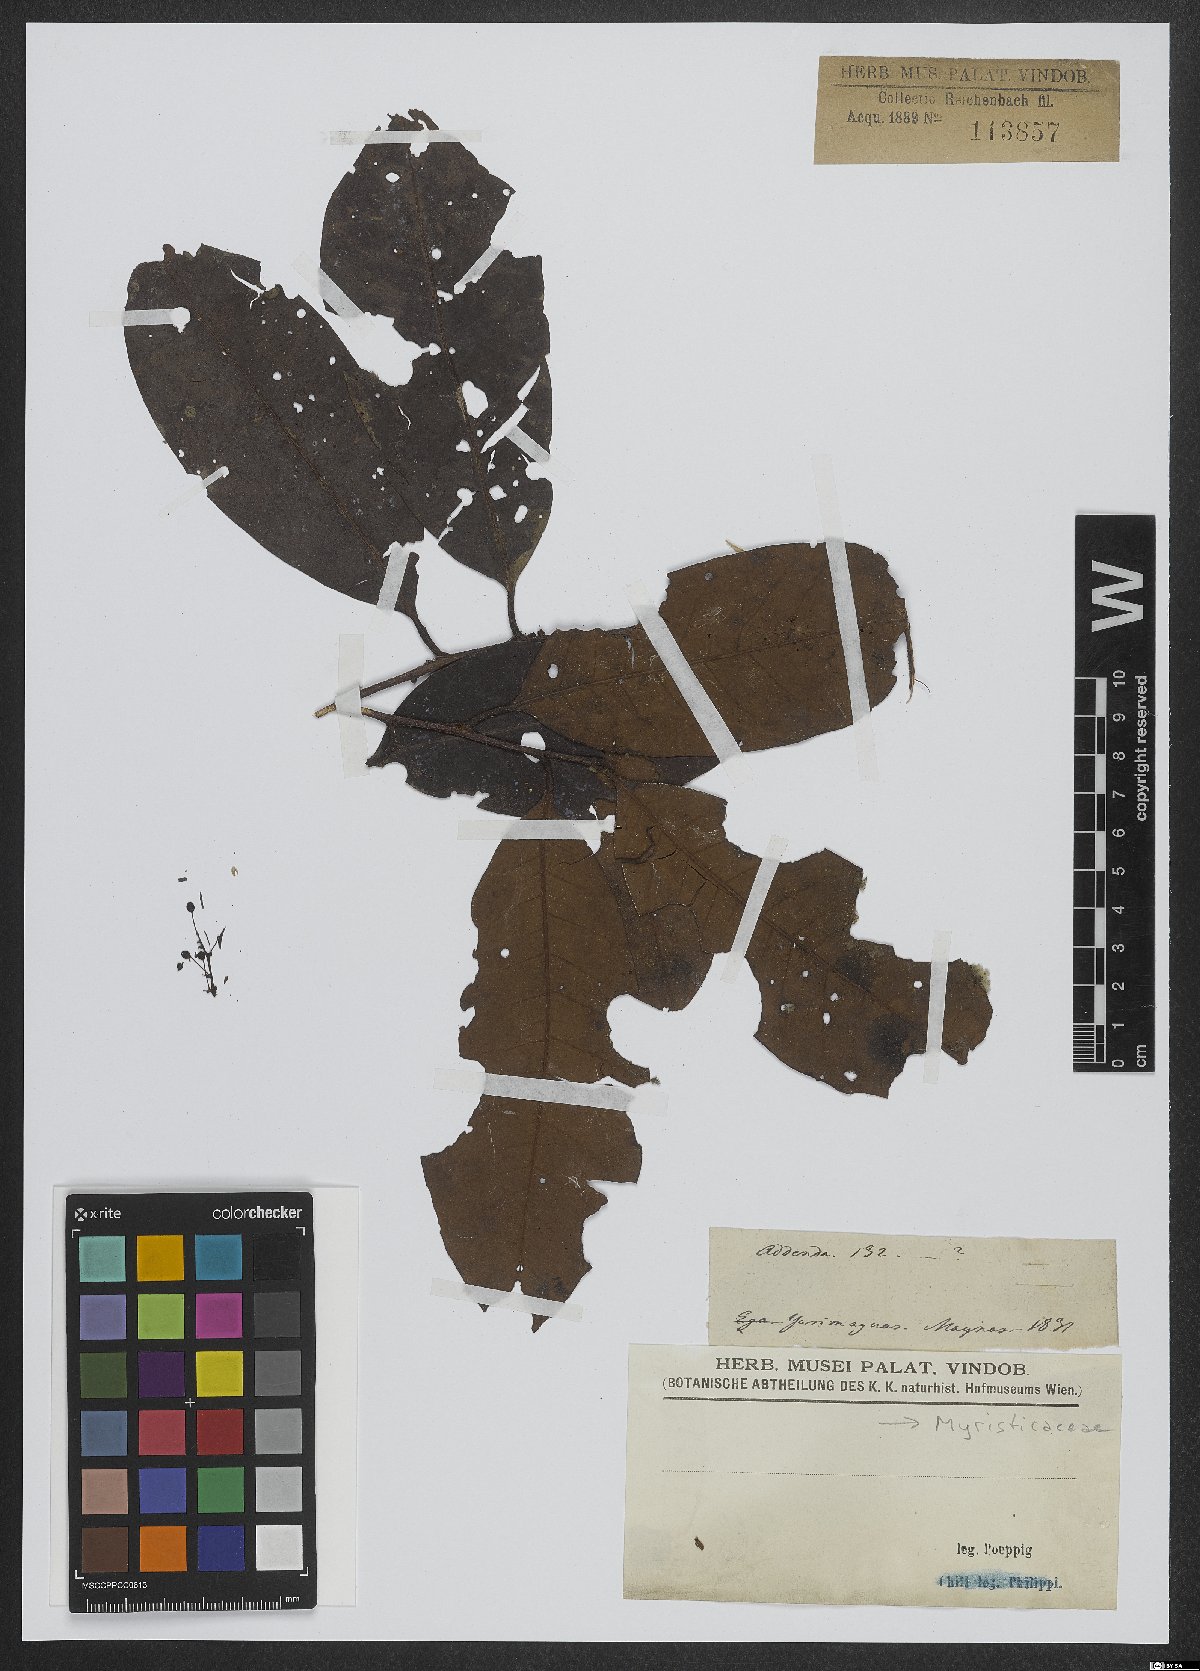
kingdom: Plantae
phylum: Tracheophyta
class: Magnoliopsida
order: Magnoliales
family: Myristicaceae
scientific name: Myristicaceae
